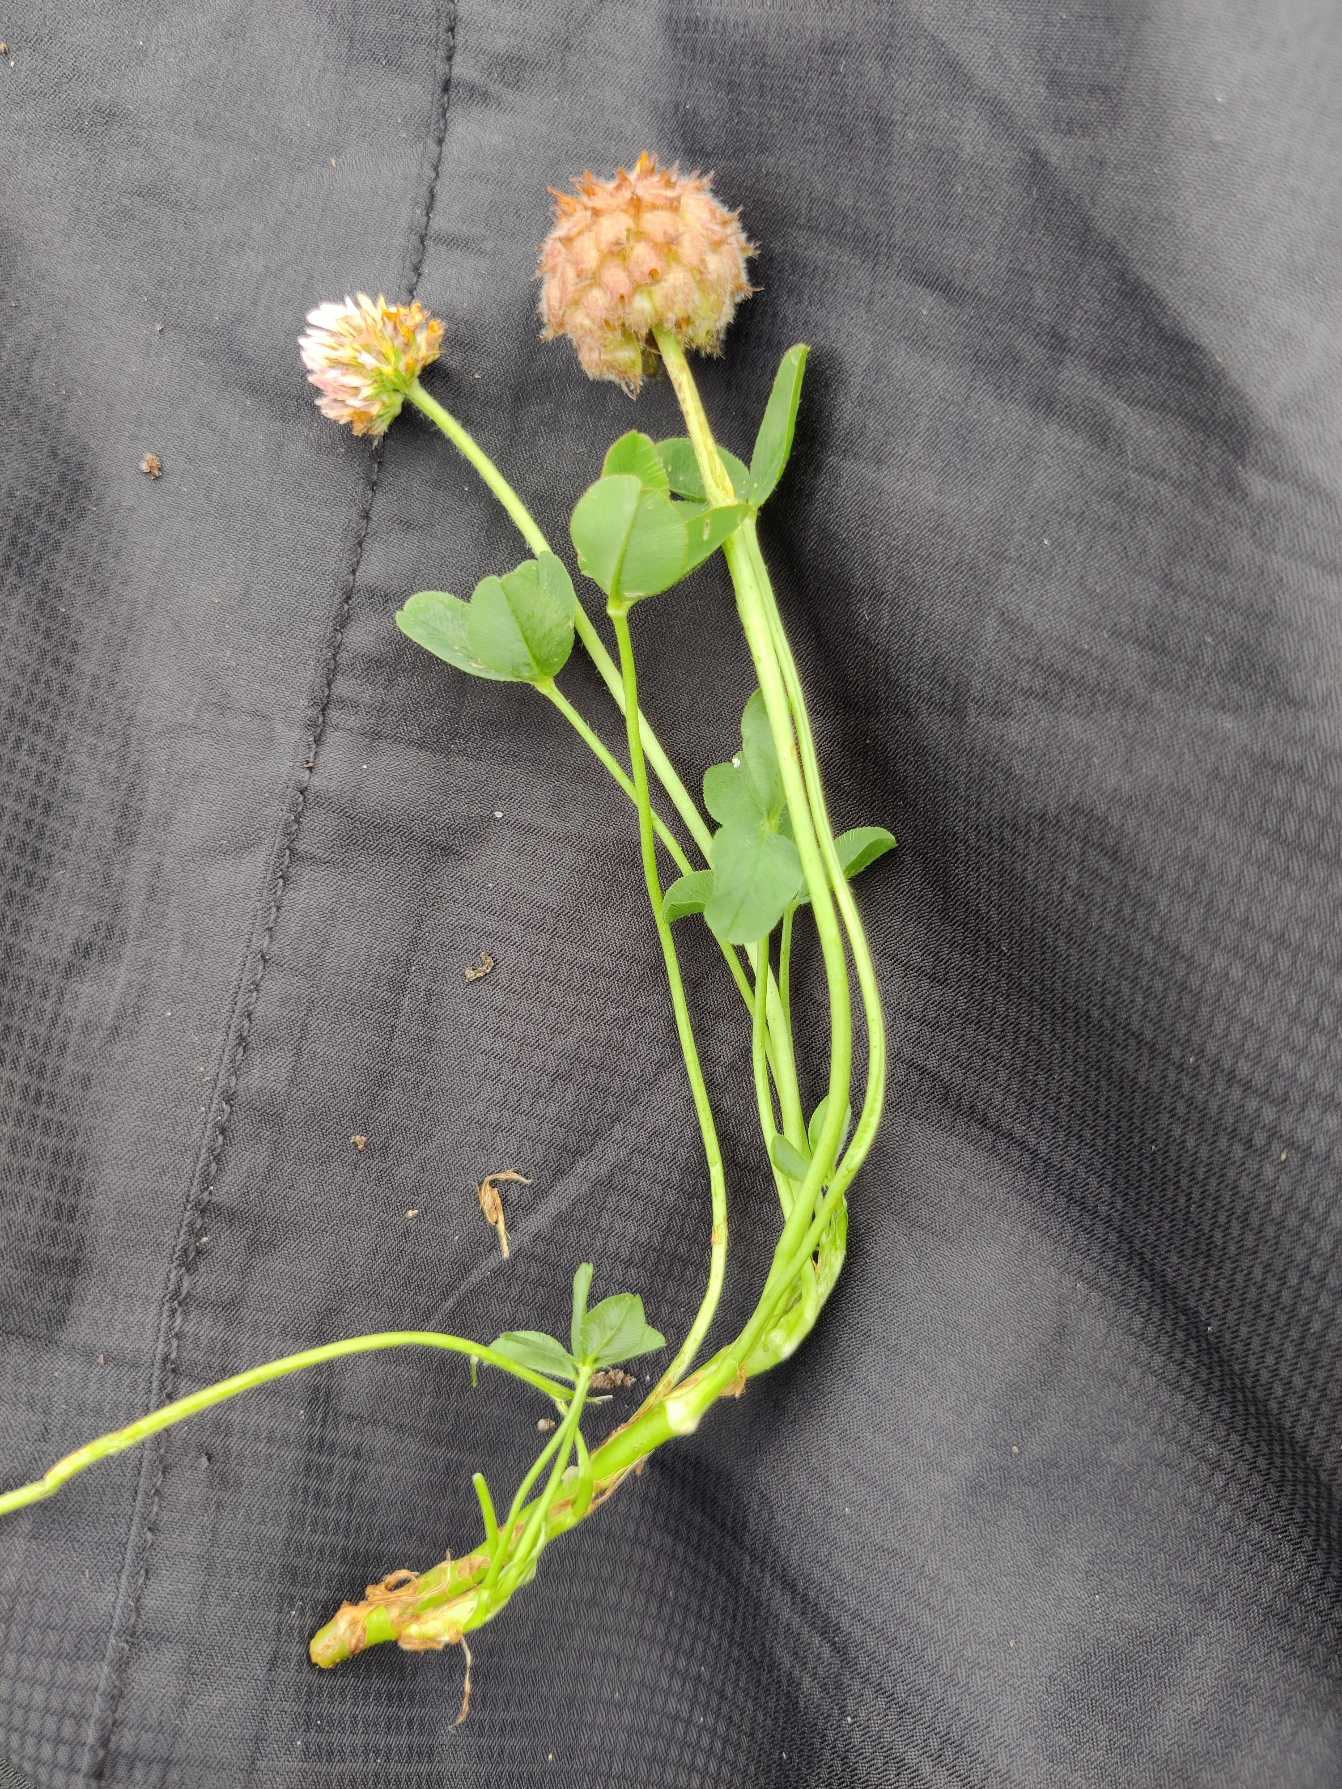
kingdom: Plantae
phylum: Tracheophyta
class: Magnoliopsida
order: Fabales
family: Fabaceae
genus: Trifolium
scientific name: Trifolium fragiferum
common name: Jordbær-kløver
